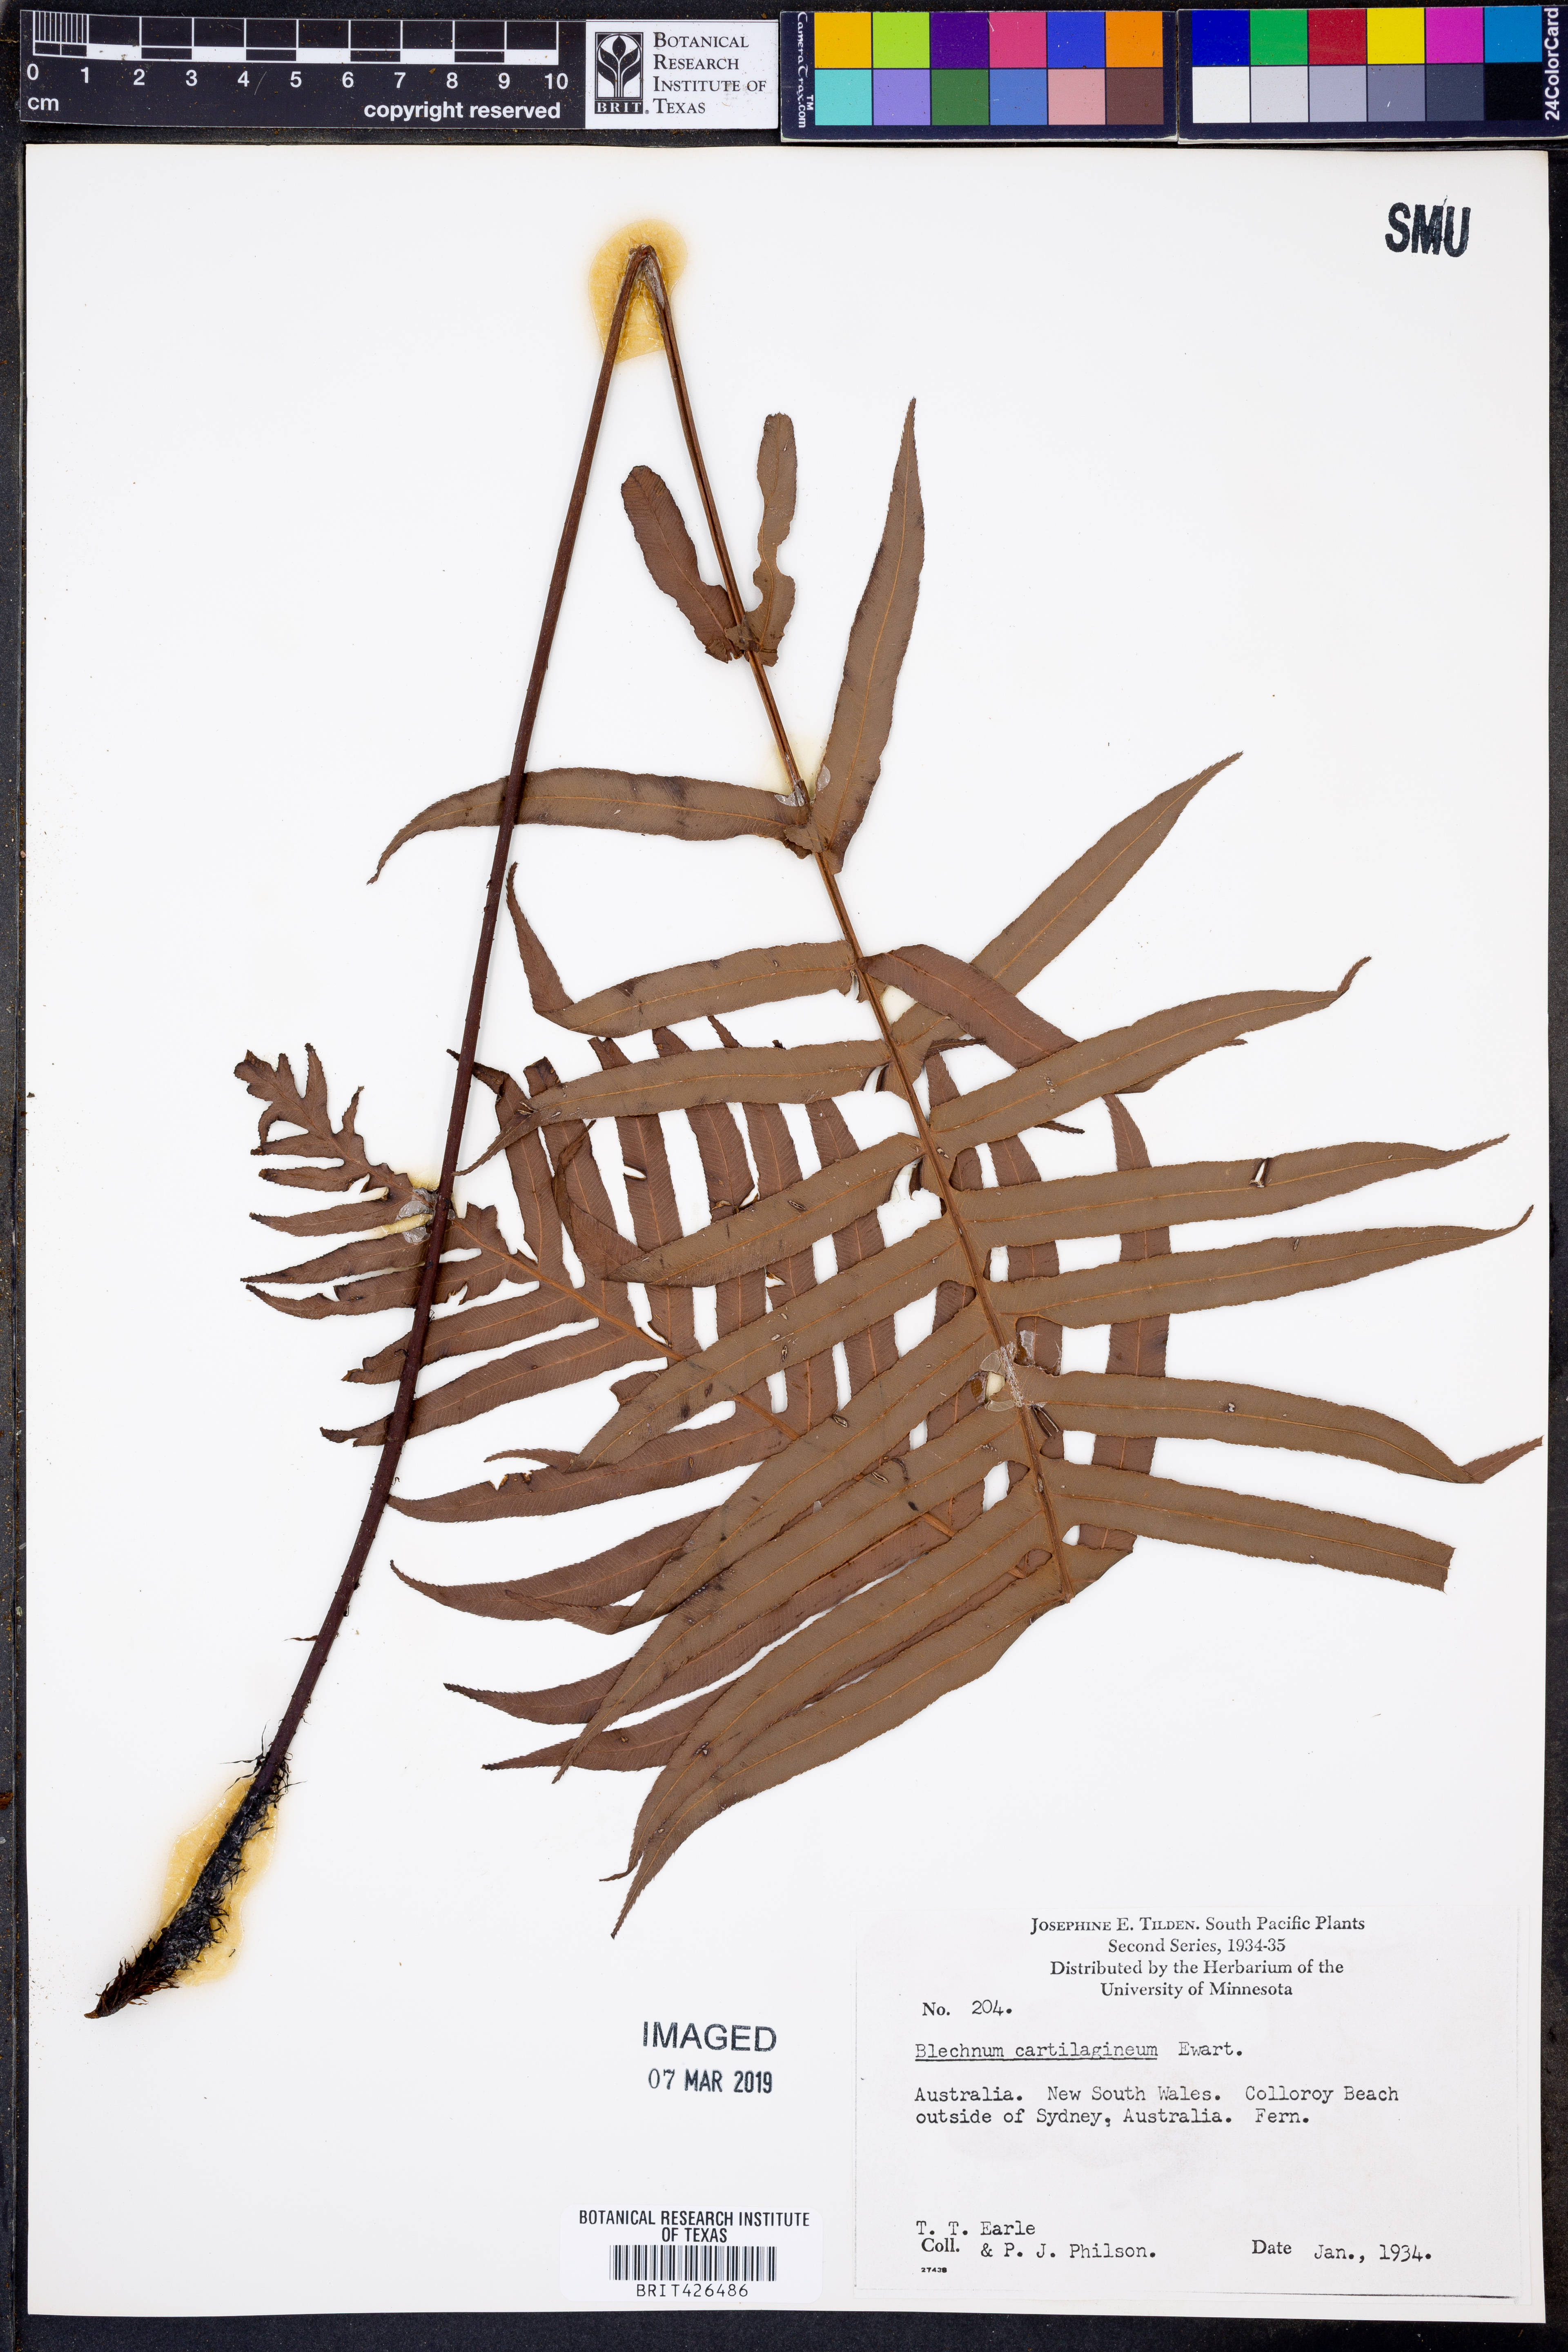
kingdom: Plantae
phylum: Tracheophyta
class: Polypodiopsida
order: Polypodiales
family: Blechnaceae
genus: Oceaniopteris
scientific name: Oceaniopteris cartilaginea
